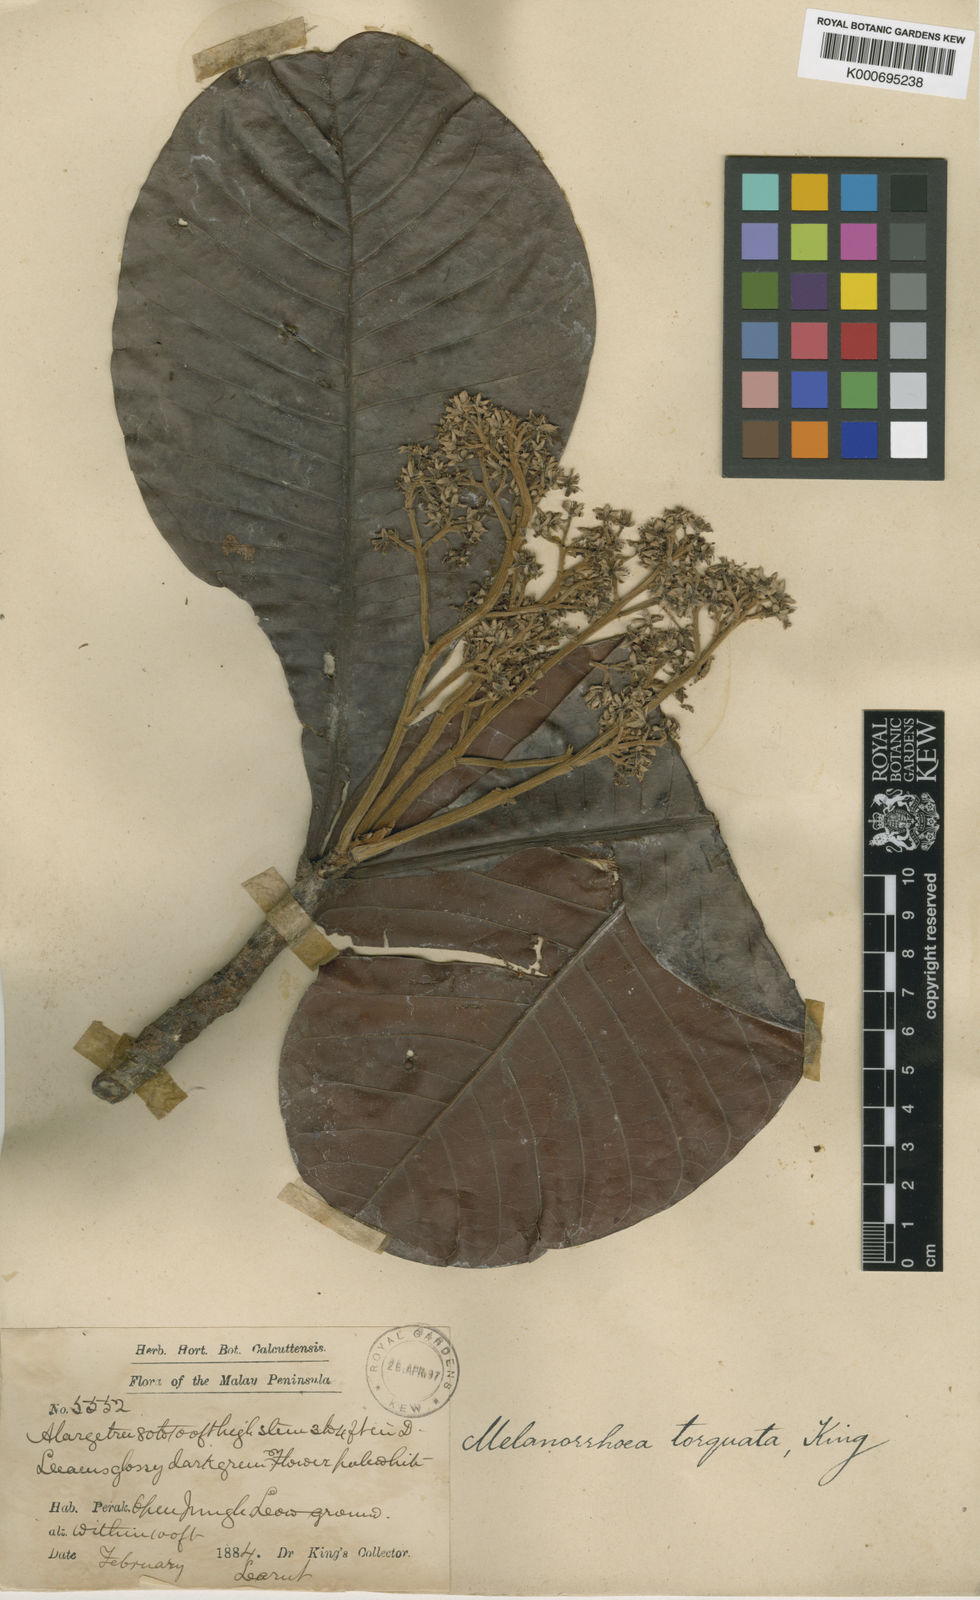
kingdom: Plantae
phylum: Tracheophyta
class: Magnoliopsida
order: Sapindales
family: Anacardiaceae
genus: Gluta
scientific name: Gluta torquata
